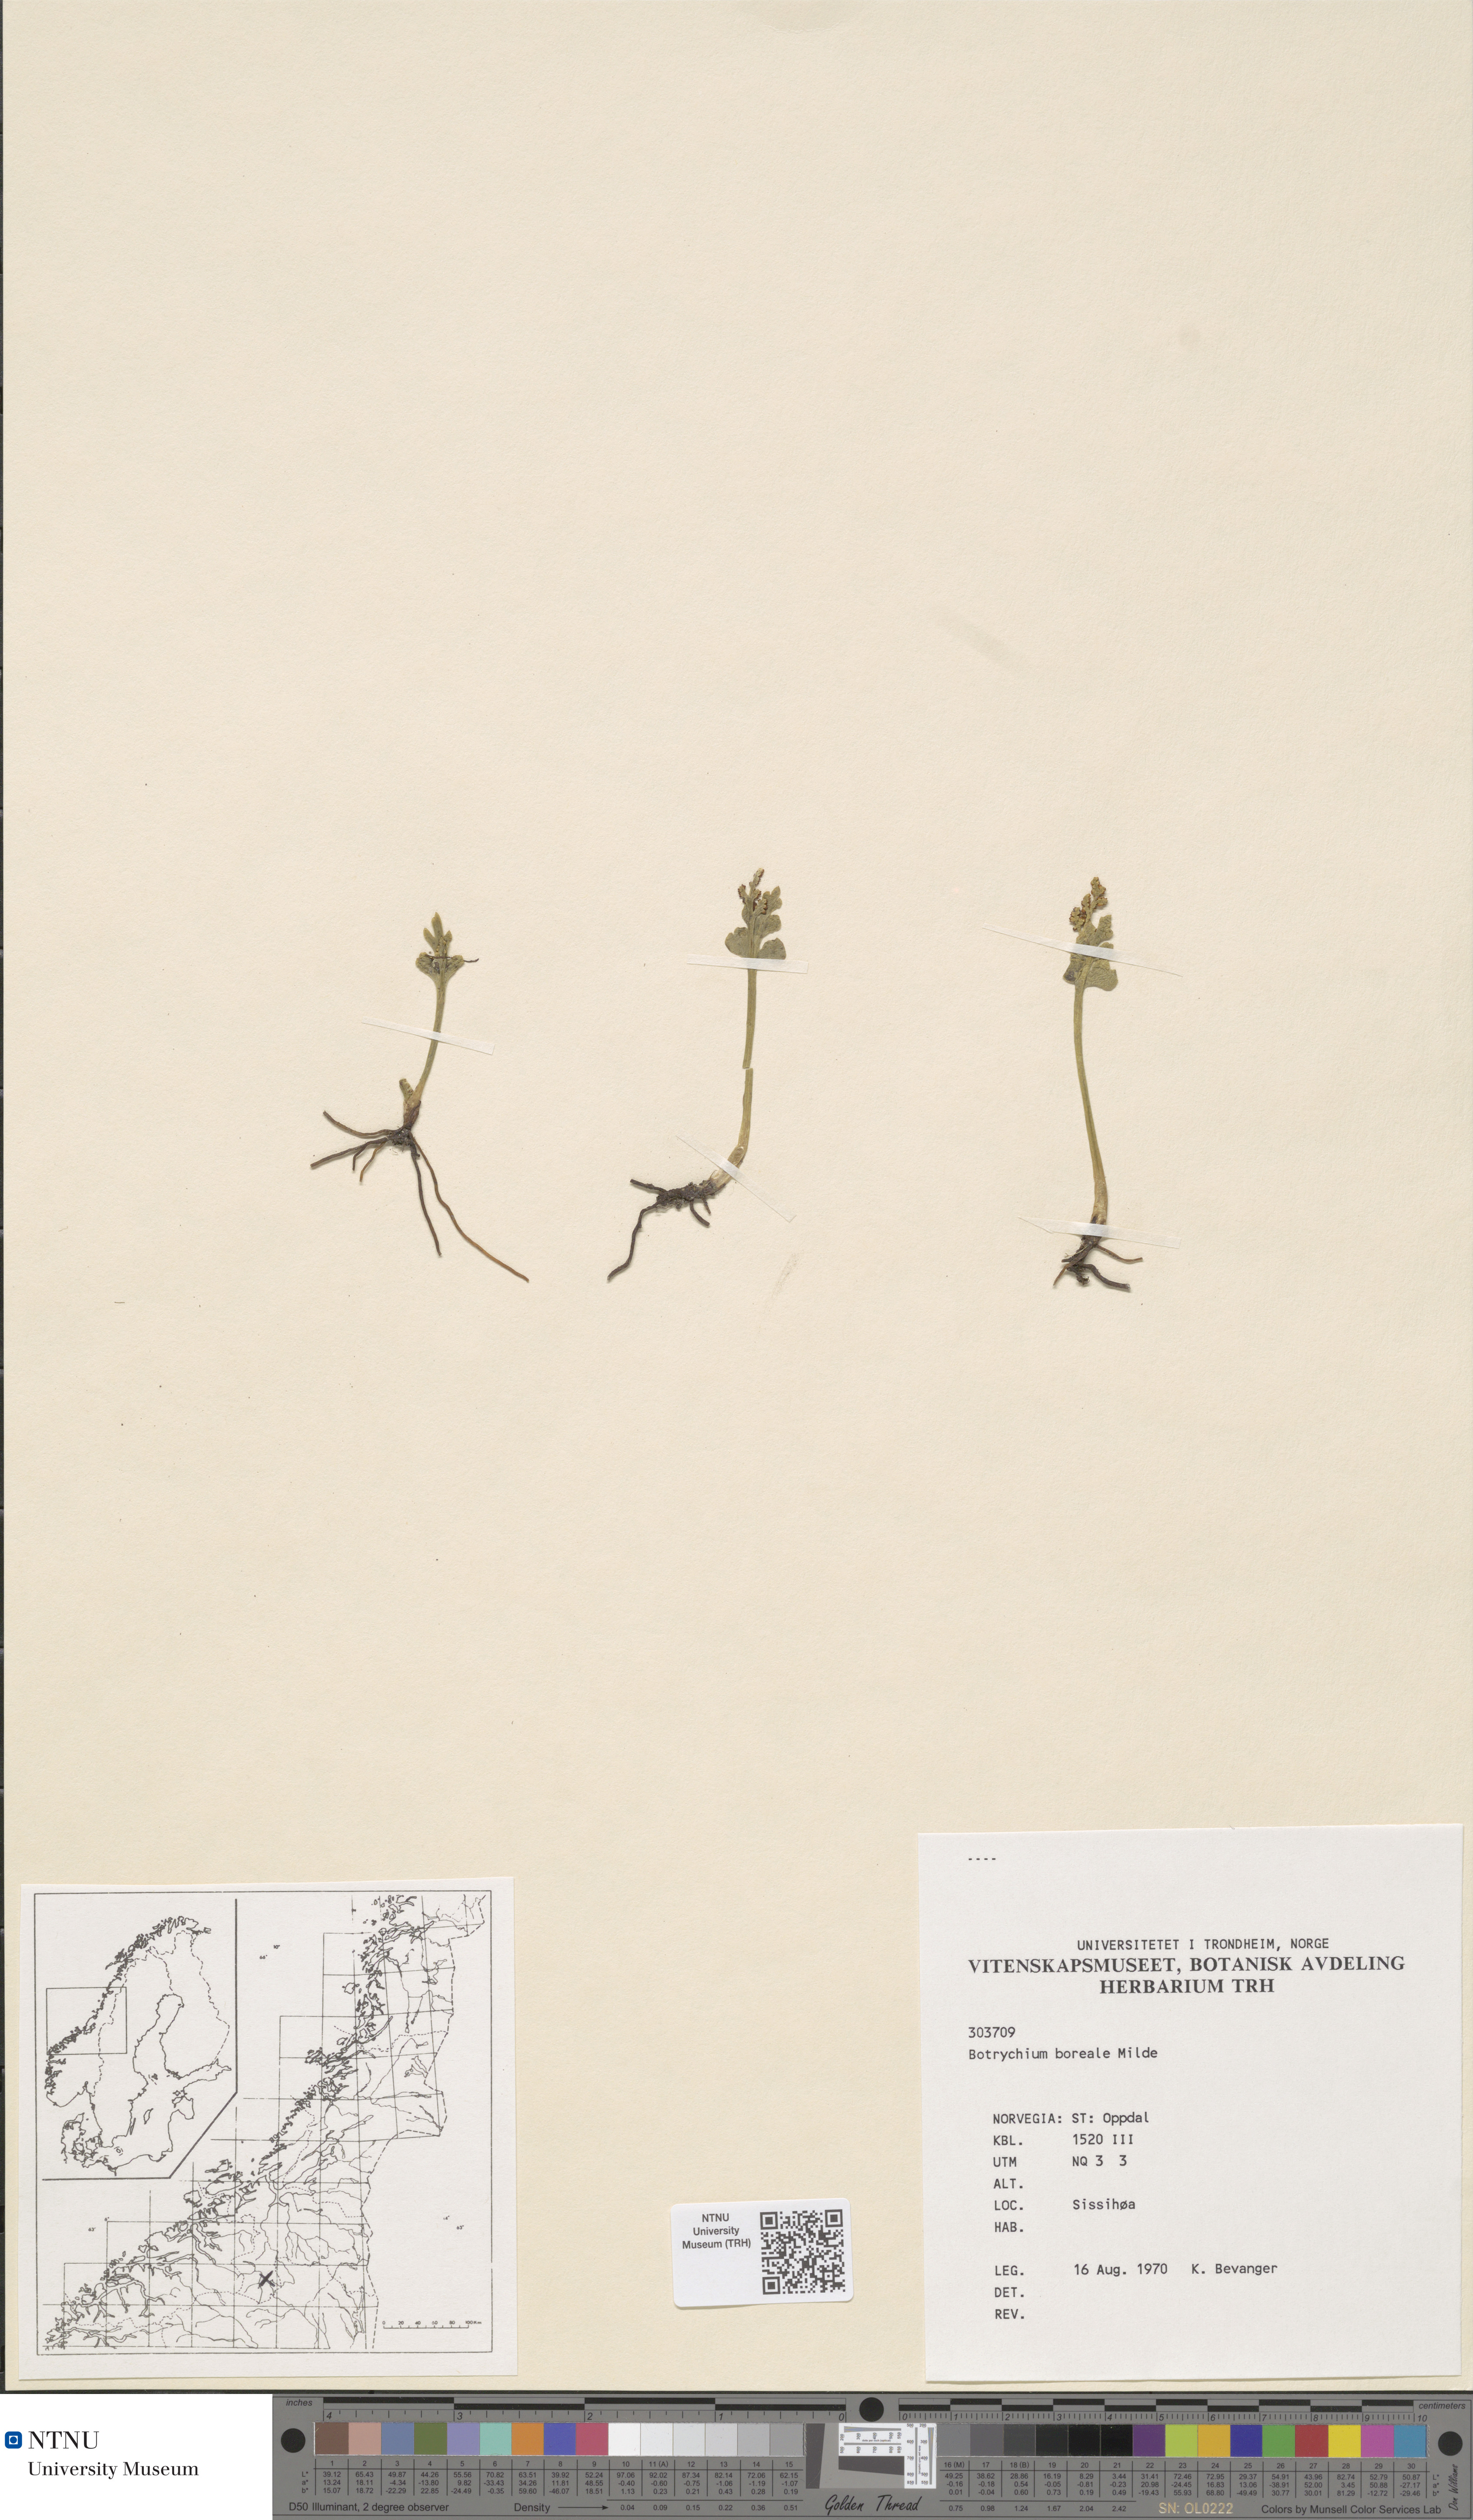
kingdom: Plantae
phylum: Tracheophyta
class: Polypodiopsida
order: Ophioglossales
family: Ophioglossaceae
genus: Botrychium
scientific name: Botrychium boreale
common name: Boreal moonwort
